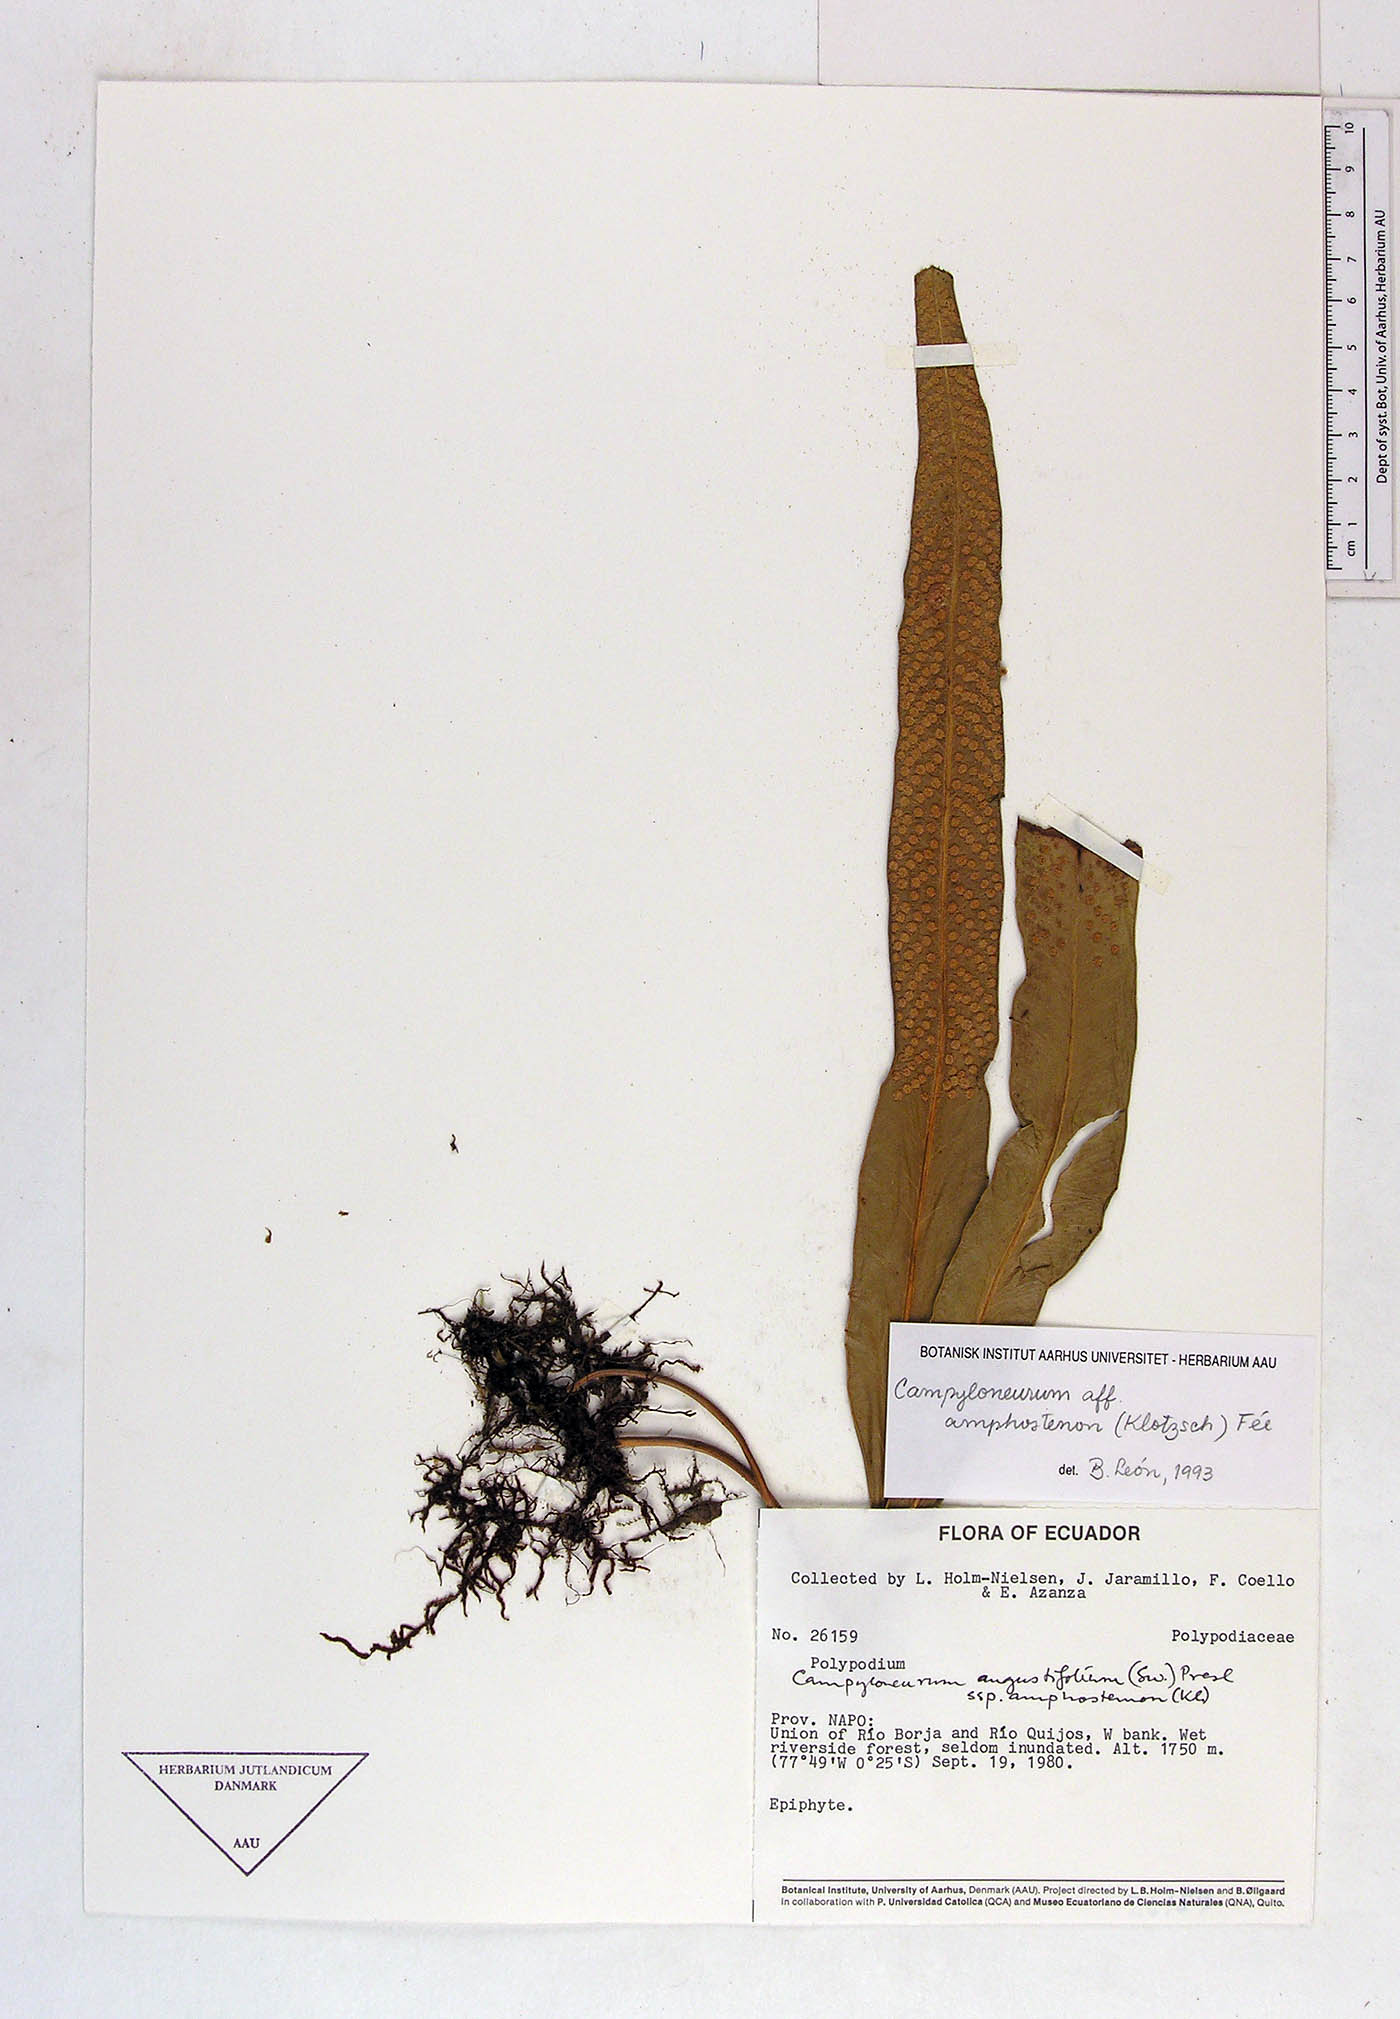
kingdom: Plantae
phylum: Tracheophyta
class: Polypodiopsida
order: Polypodiales
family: Polypodiaceae
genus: Campyloneurum
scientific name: Campyloneurum angustifolium
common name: Narrow-leaf strap fern
